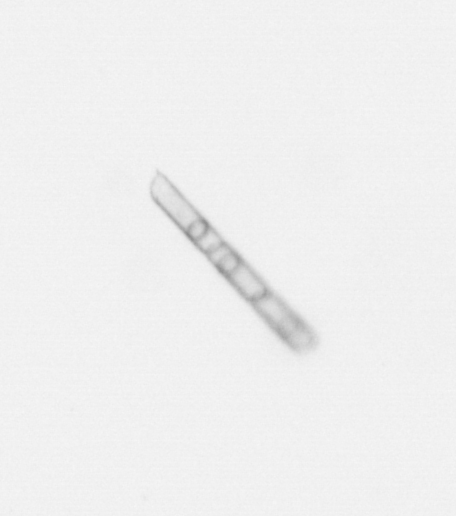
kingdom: Chromista
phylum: Ochrophyta
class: Bacillariophyceae
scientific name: Bacillariophyceae
